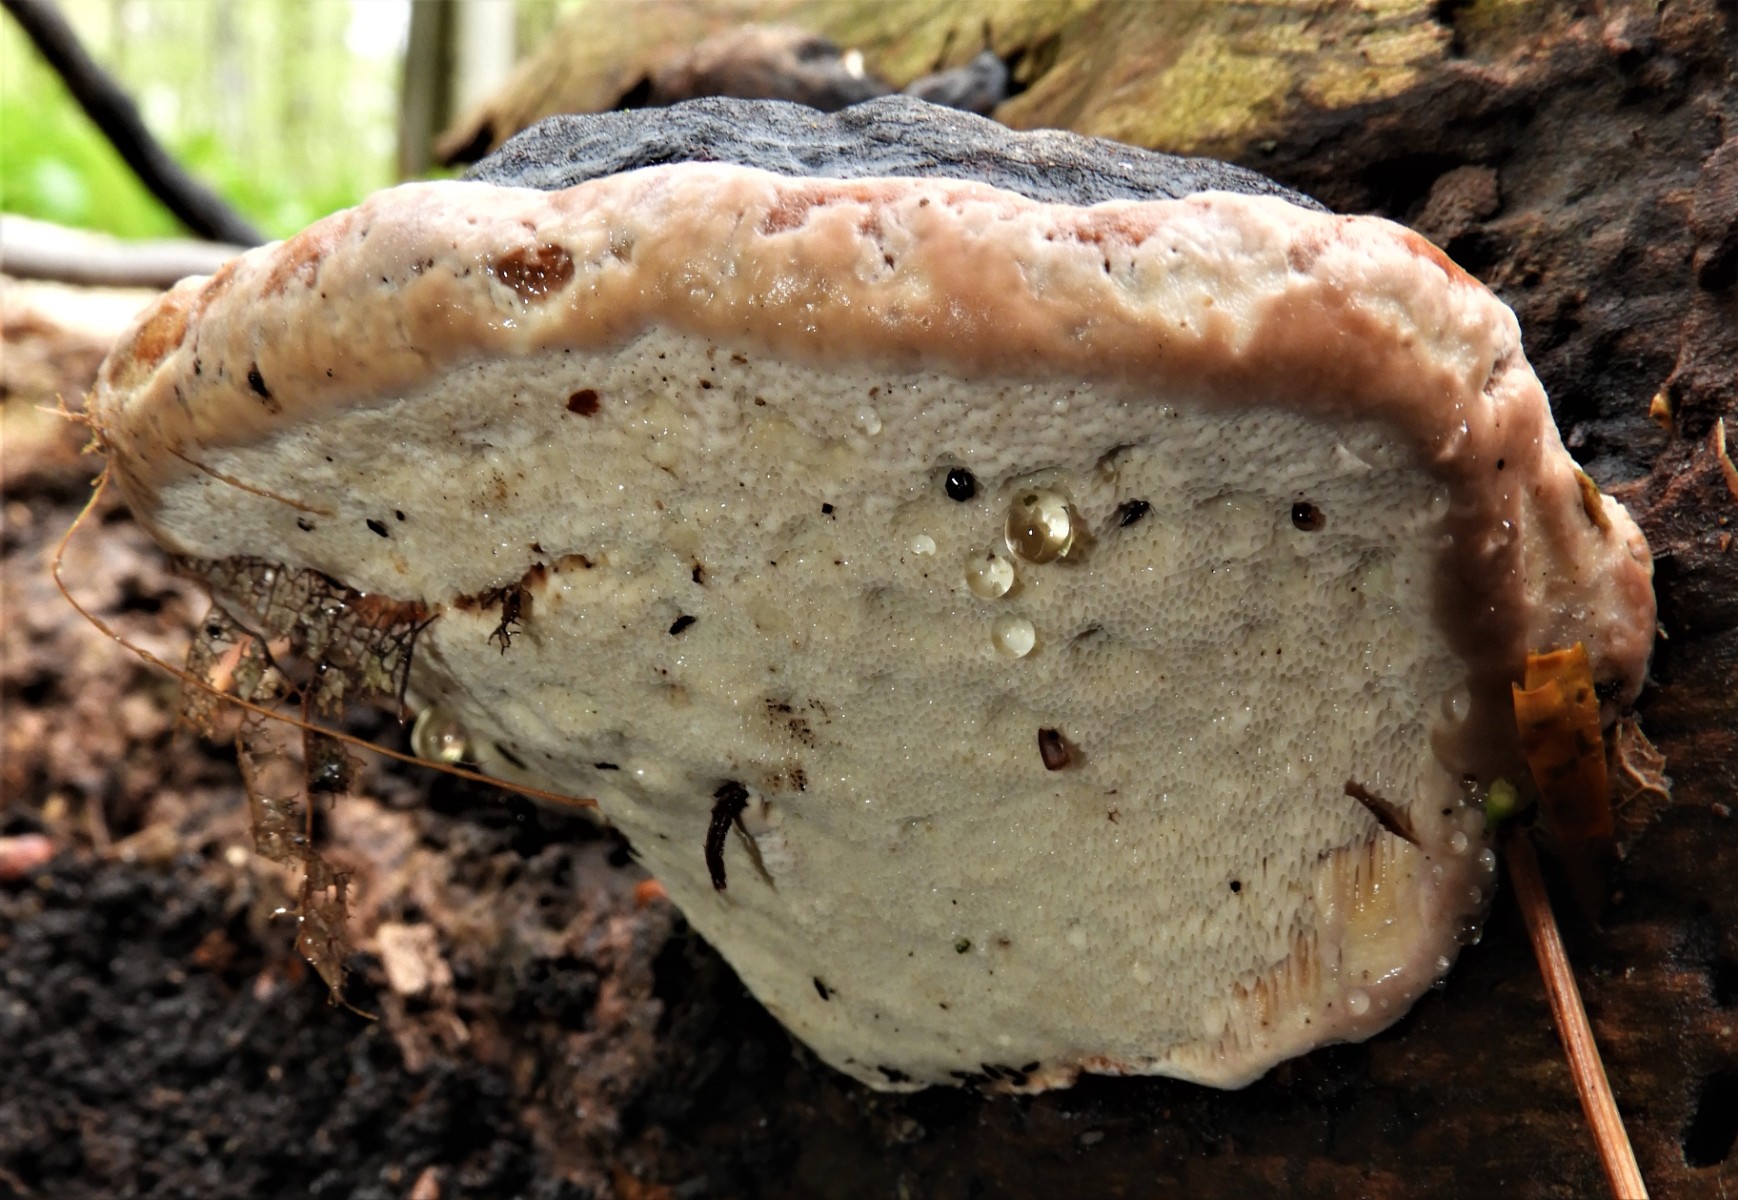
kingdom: Fungi
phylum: Basidiomycota
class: Agaricomycetes
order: Polyporales
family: Fomitopsidaceae
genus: Fomitopsis
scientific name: Fomitopsis pinicola
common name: randbæltet hovporesvamp
